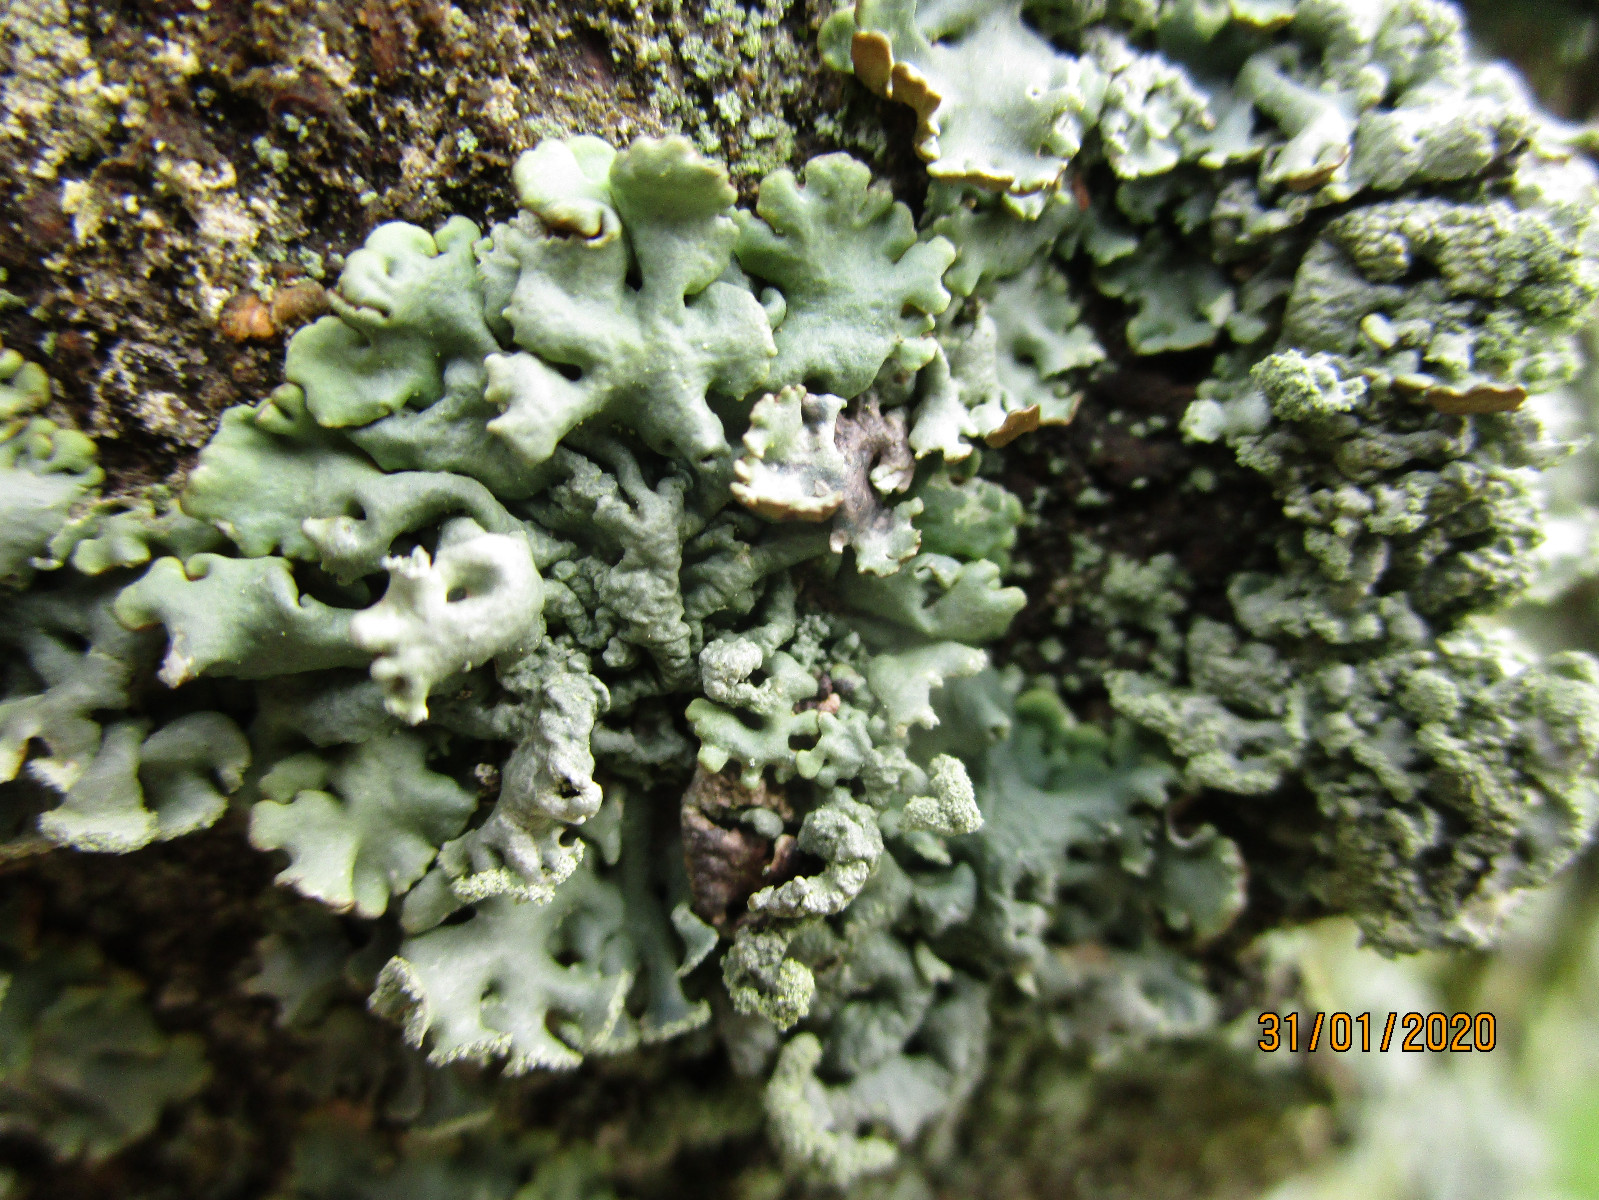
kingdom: Fungi
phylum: Ascomycota
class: Lecanoromycetes
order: Lecanorales
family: Parmeliaceae
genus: Hypogymnia
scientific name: Hypogymnia physodes
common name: almindelig kvistlav
